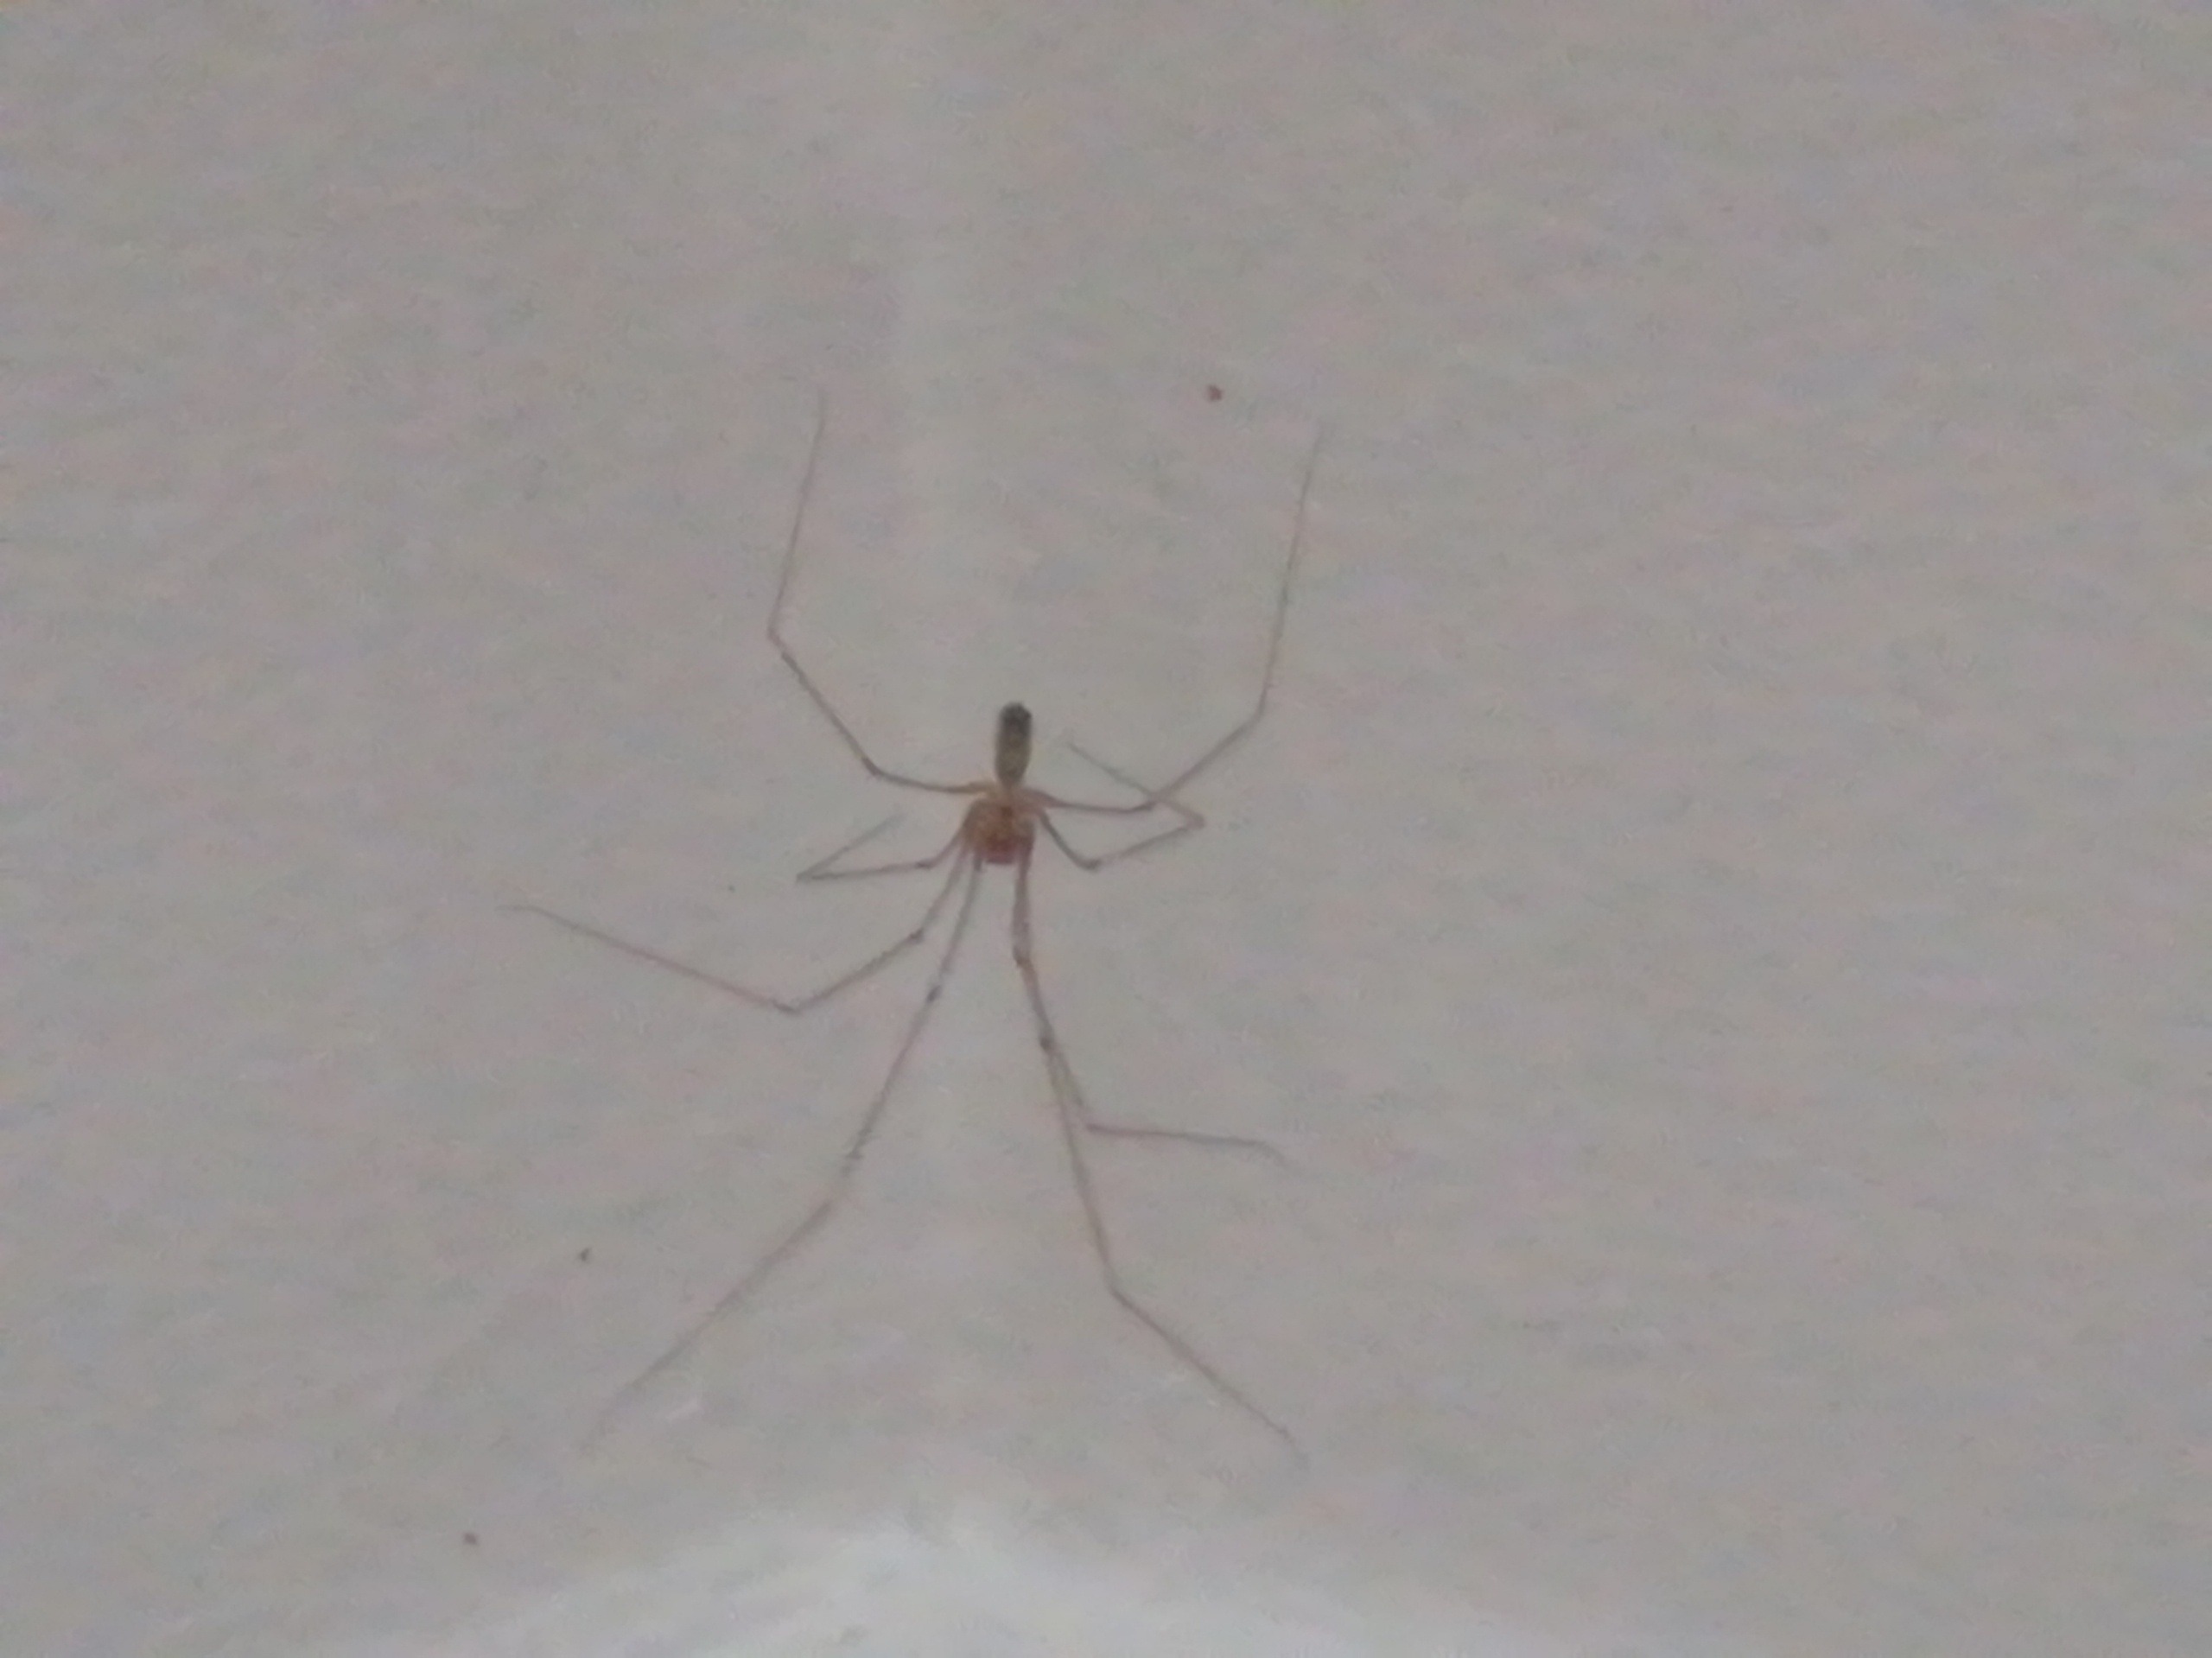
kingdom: Animalia
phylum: Arthropoda
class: Arachnida
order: Araneae
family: Pholcidae
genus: Pholcus
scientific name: Pholcus phalangioides
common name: Mejeredderkop
